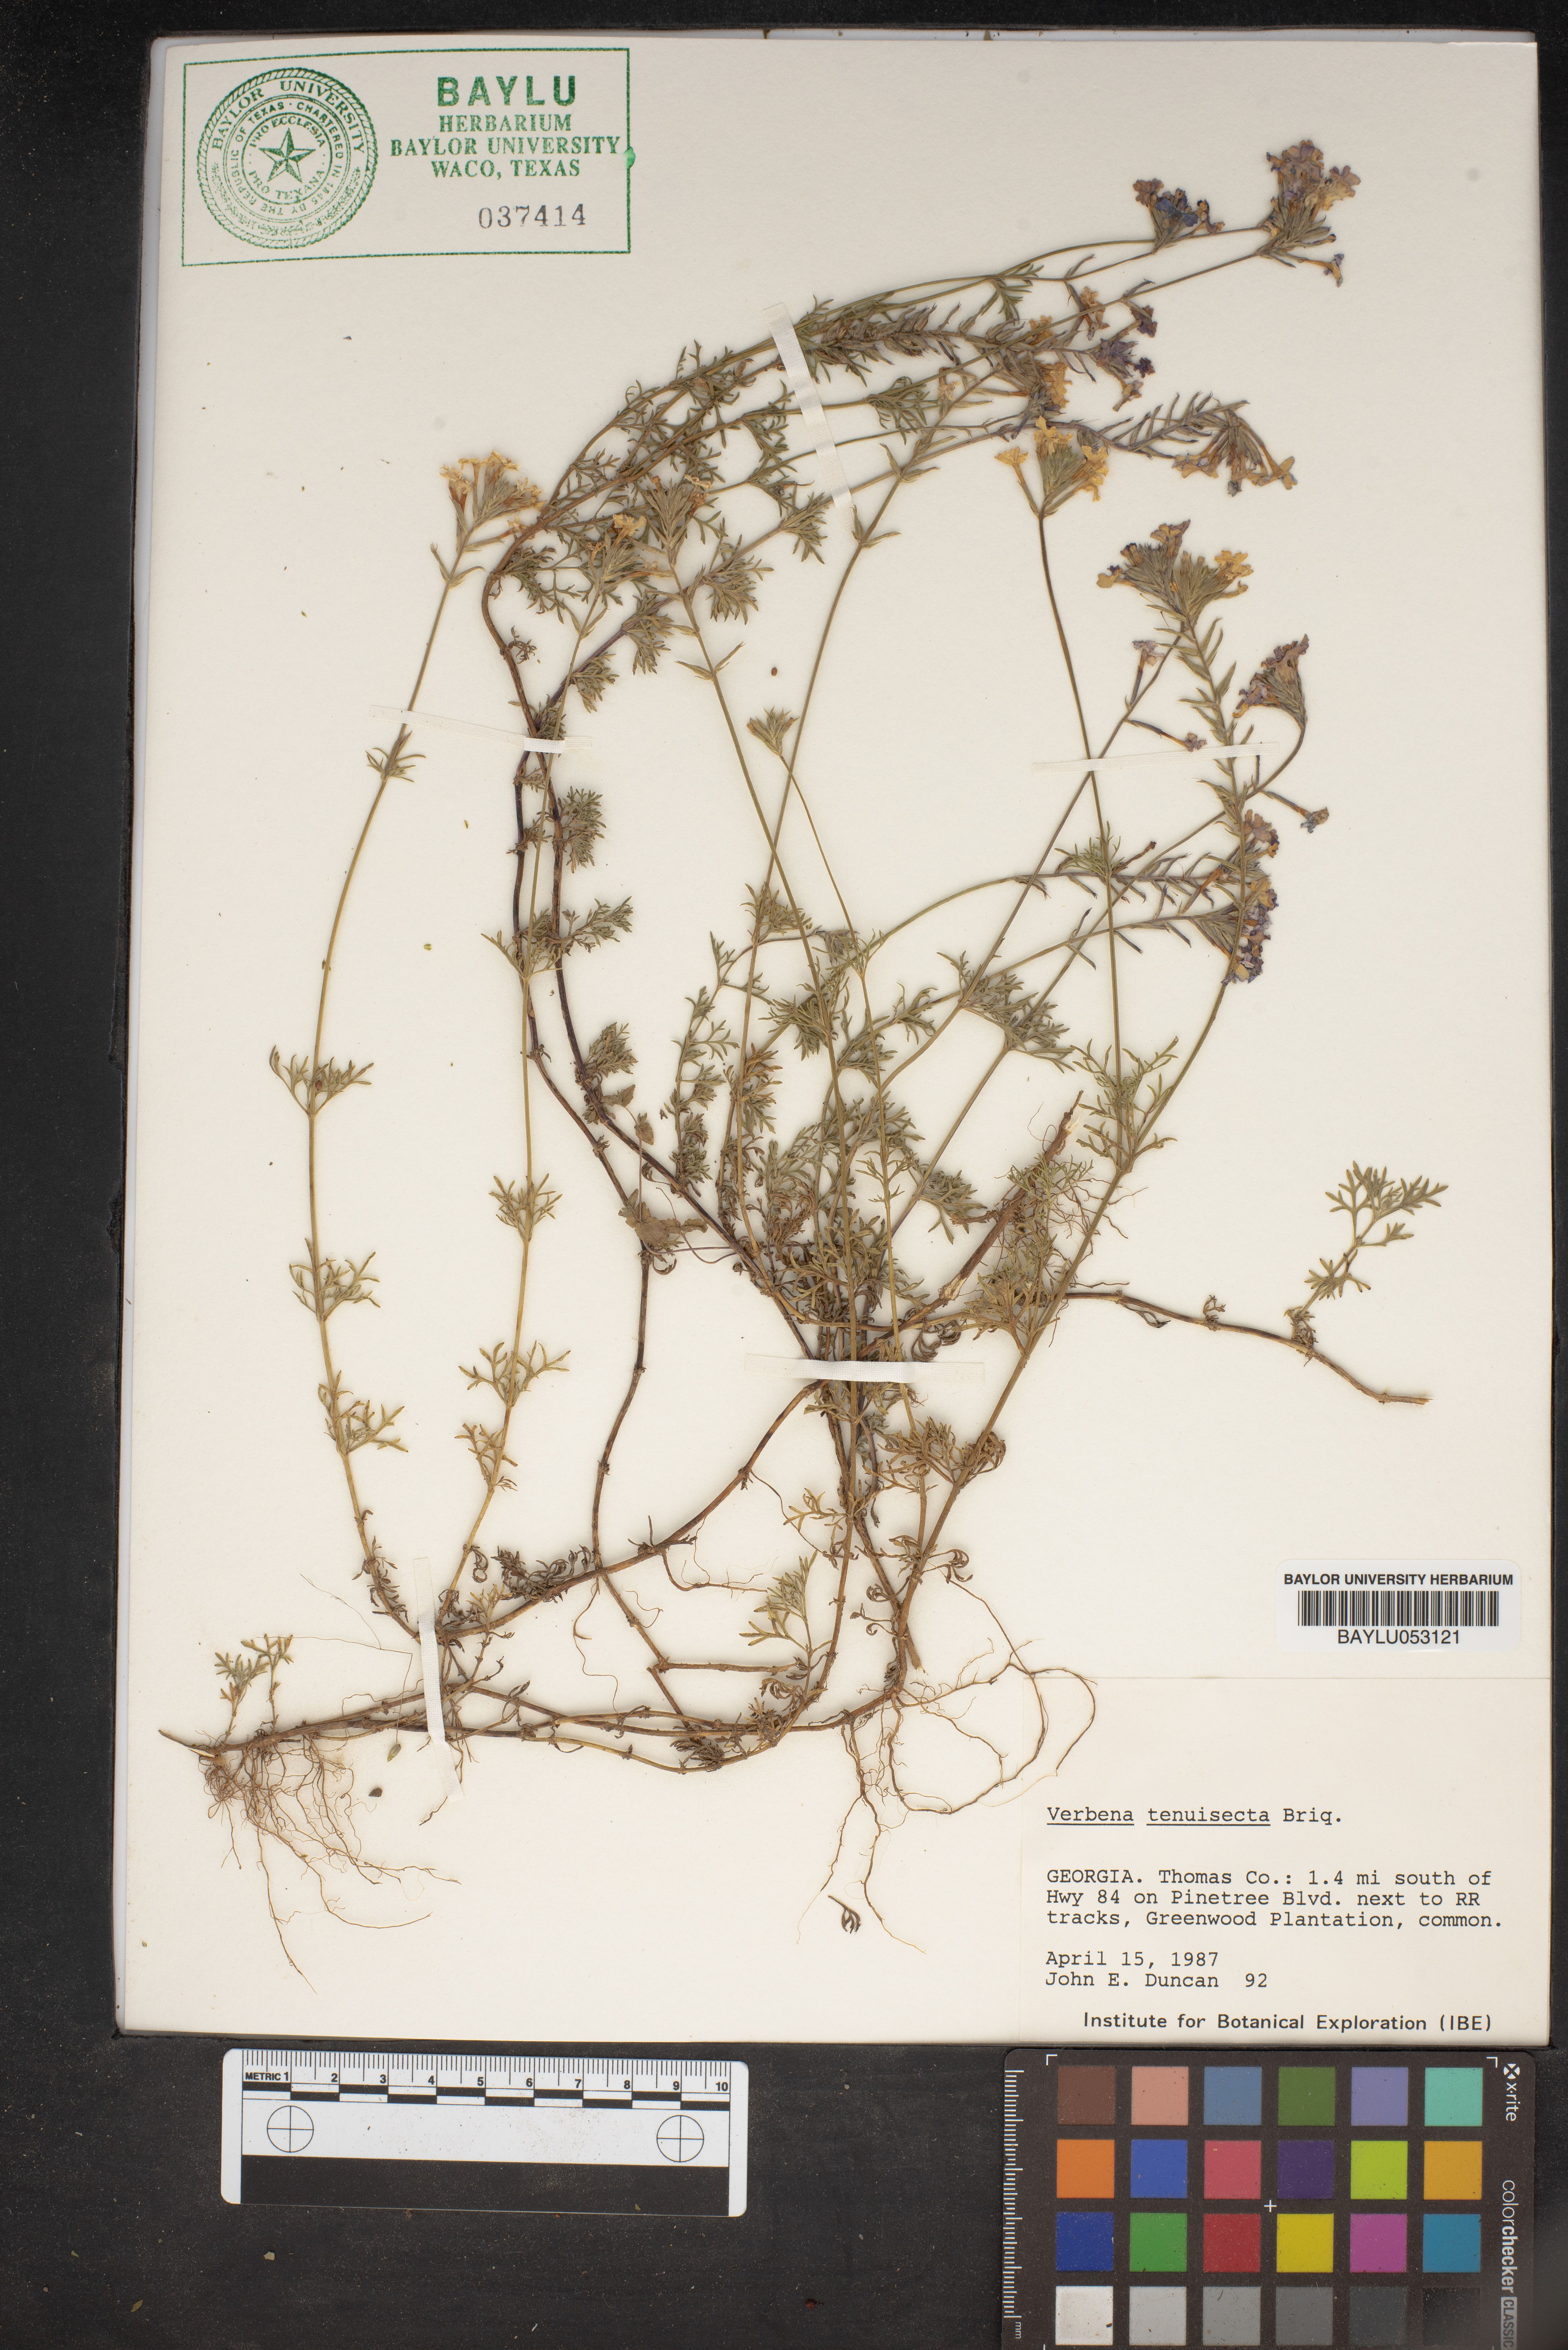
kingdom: Plantae
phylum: Tracheophyta
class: Magnoliopsida
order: Lamiales
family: Verbenaceae
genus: Verbena
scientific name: Verbena aristigera
